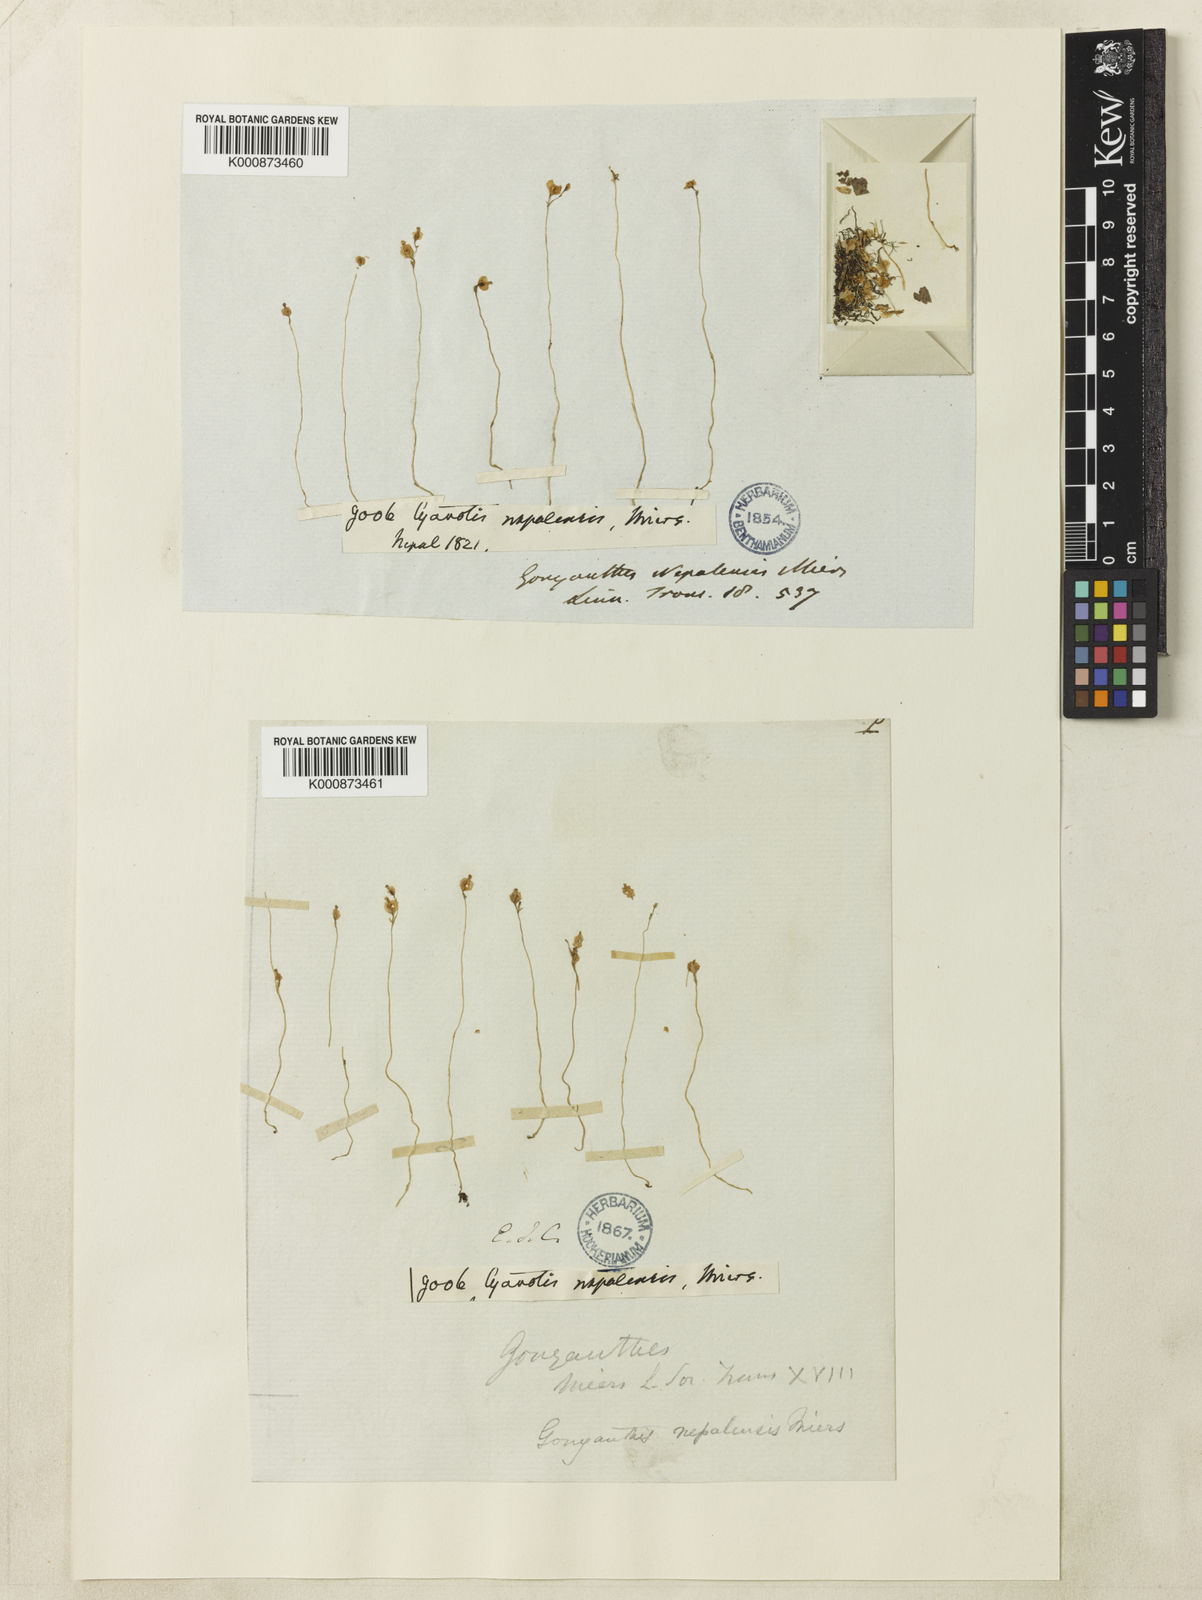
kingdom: Plantae
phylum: Tracheophyta
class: Liliopsida
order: Dioscoreales
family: Burmanniaceae
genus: Burmannia
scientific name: Burmannia nepalensis
